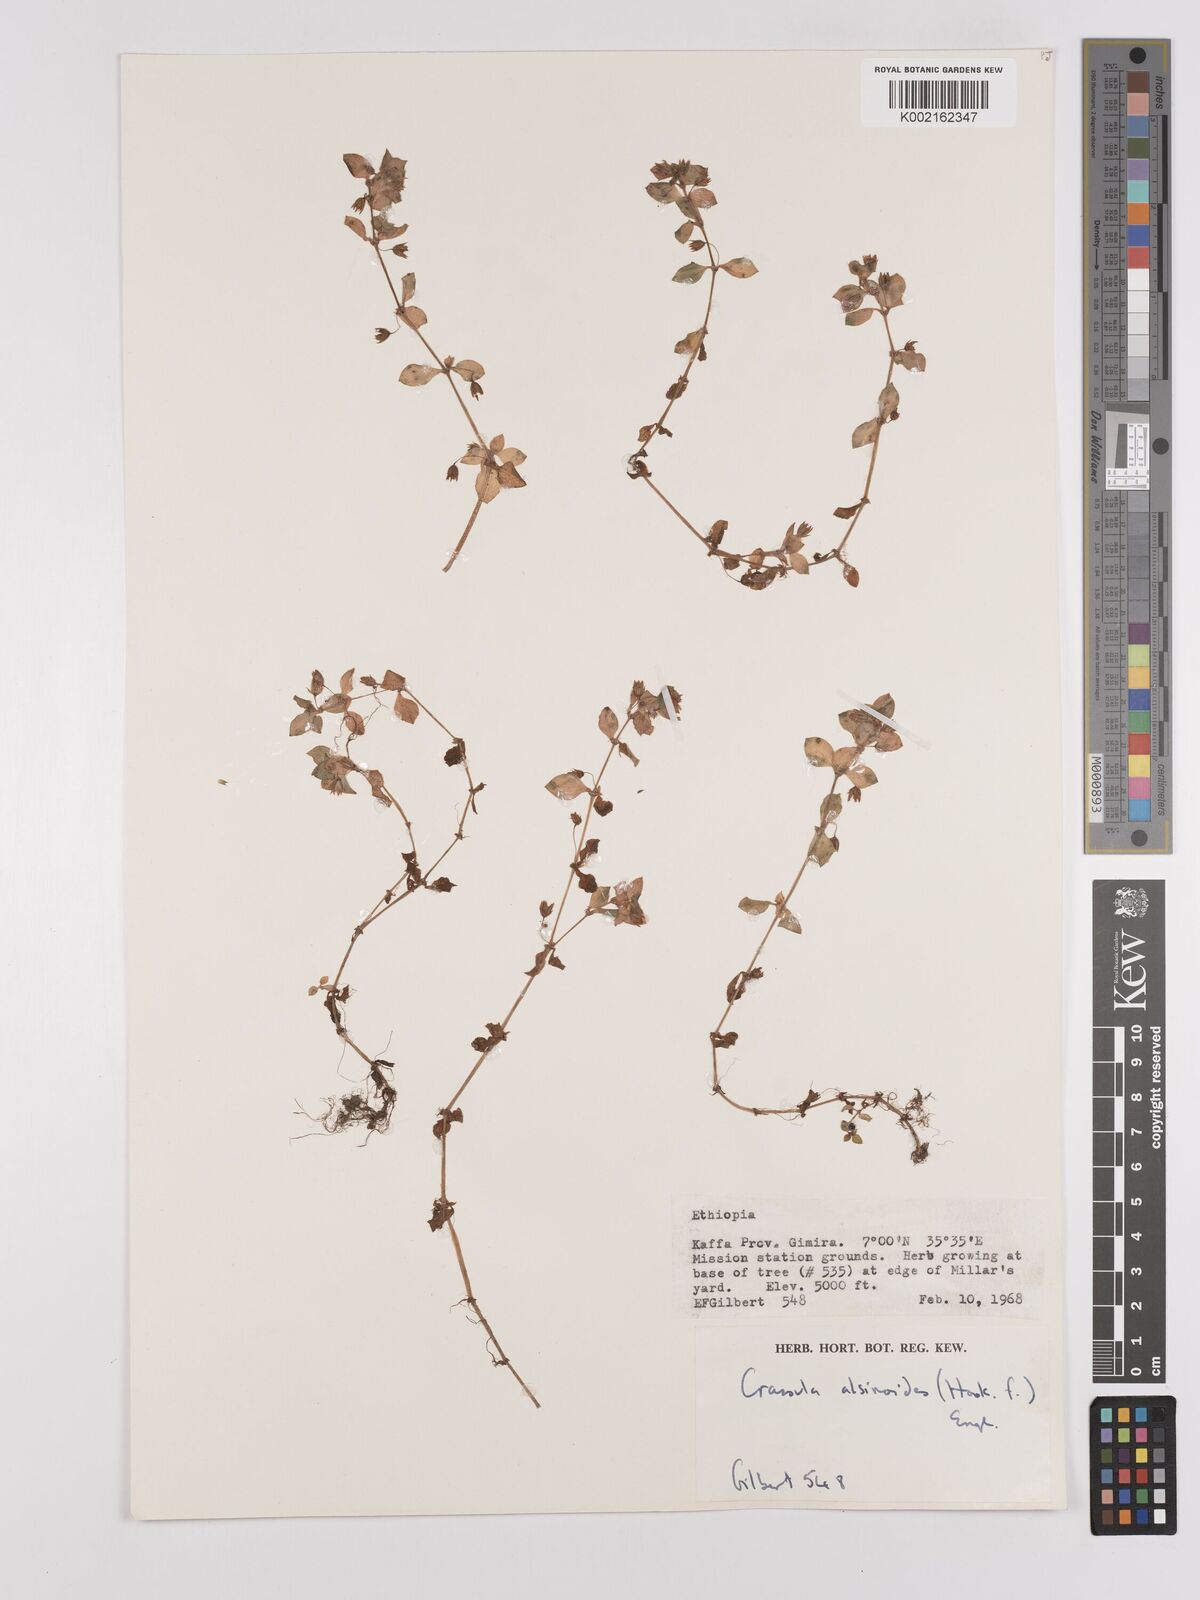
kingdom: Plantae
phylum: Tracheophyta
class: Magnoliopsida
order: Saxifragales
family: Crassulaceae
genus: Crassula
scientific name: Crassula alsinoides
